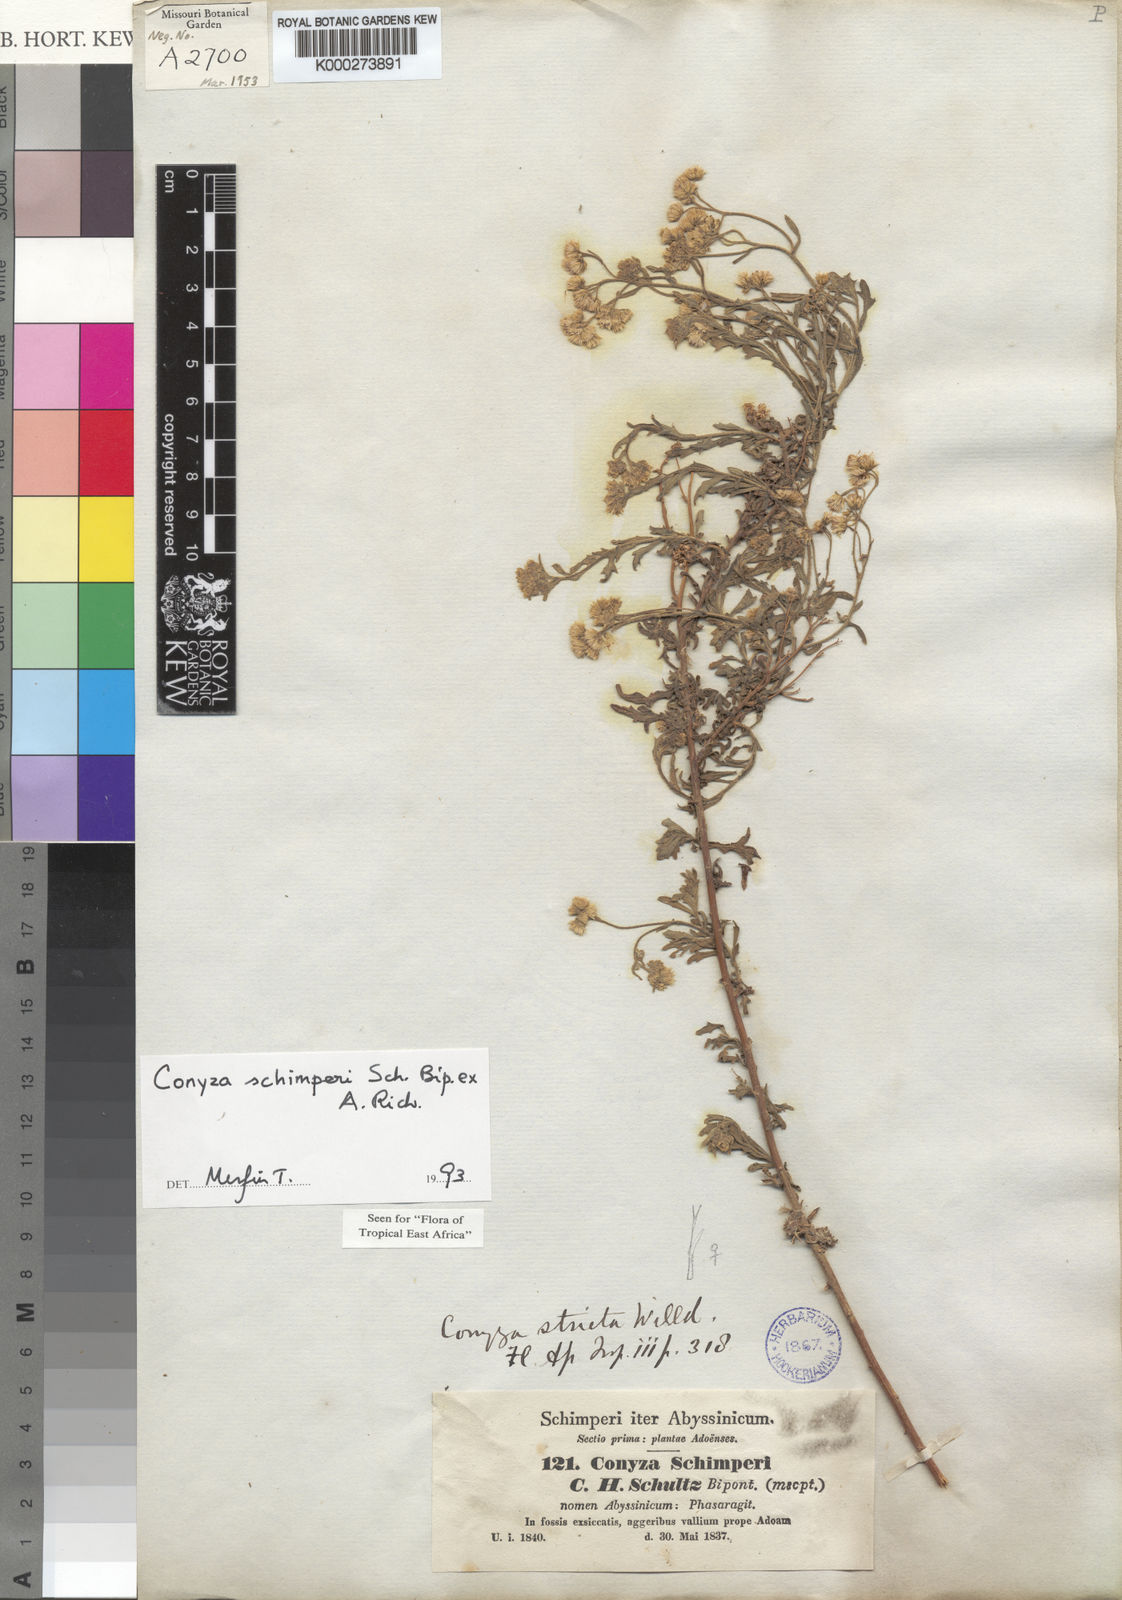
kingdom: Plantae
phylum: Tracheophyta
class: Magnoliopsida
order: Asterales
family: Asteraceae
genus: Conyza
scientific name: Conyza schimperi
